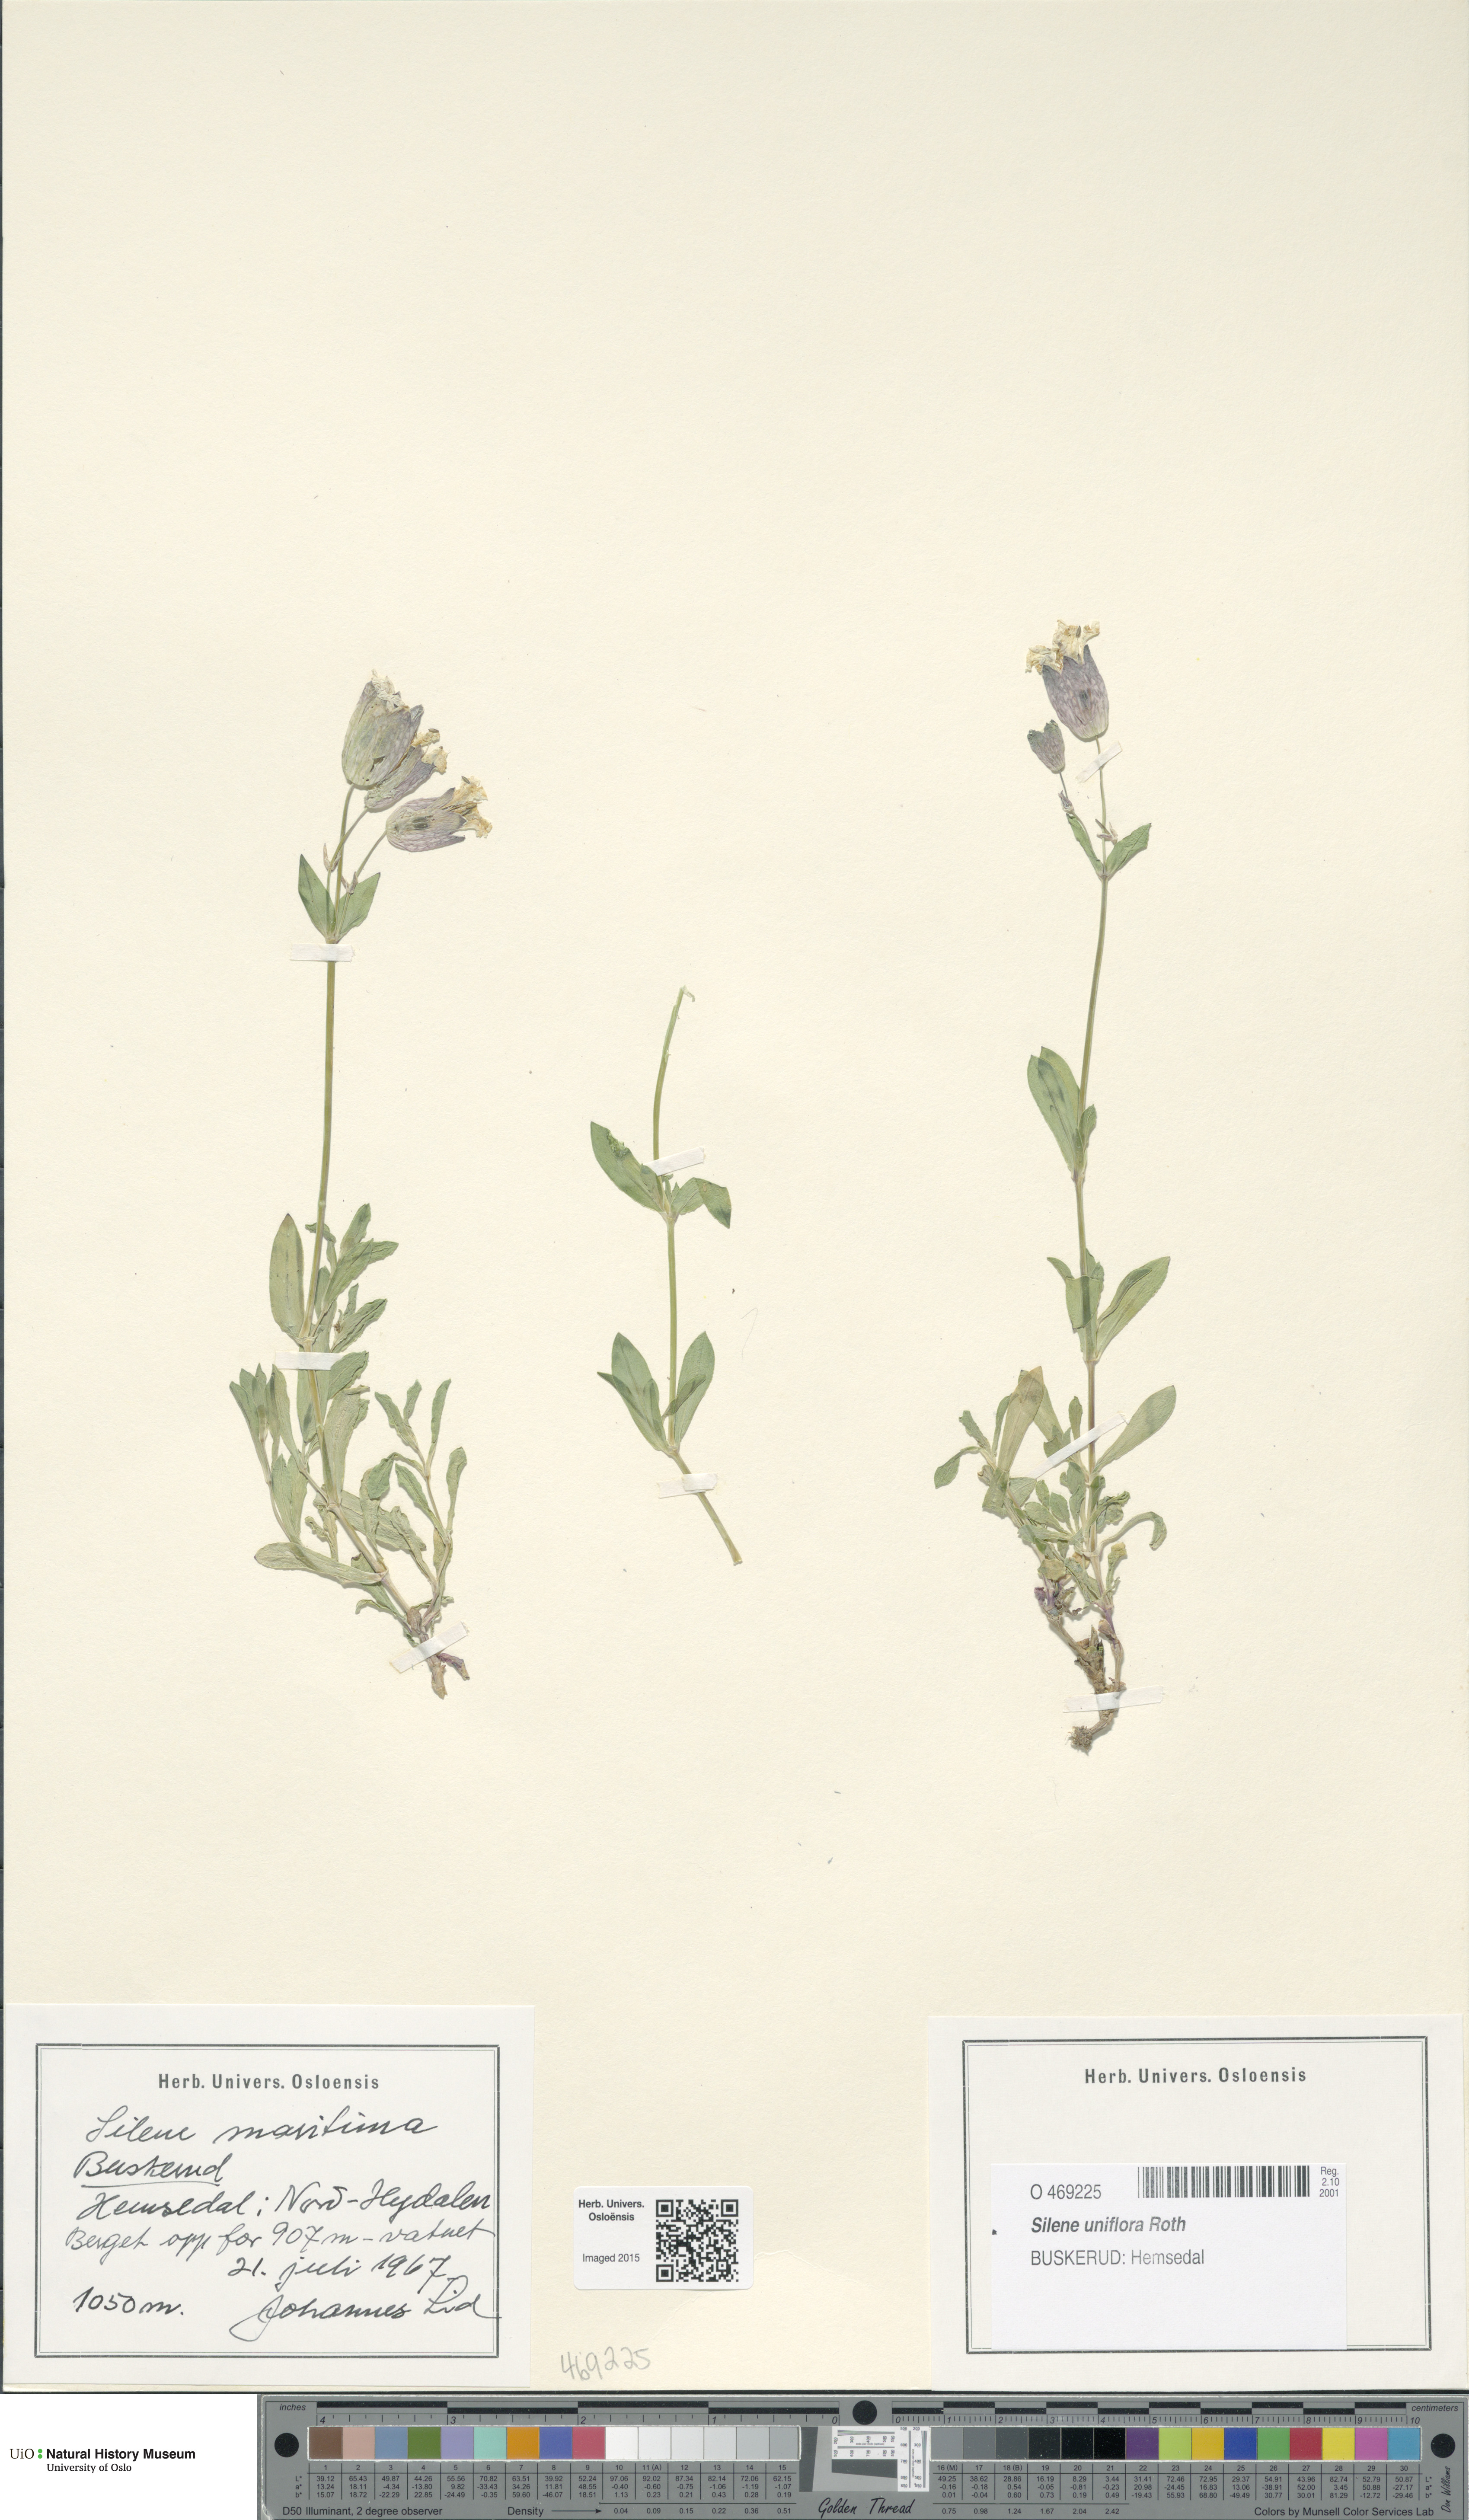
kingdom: Plantae
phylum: Tracheophyta
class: Magnoliopsida
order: Caryophyllales
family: Caryophyllaceae
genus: Silene
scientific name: Silene uniflora
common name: Sea campion
